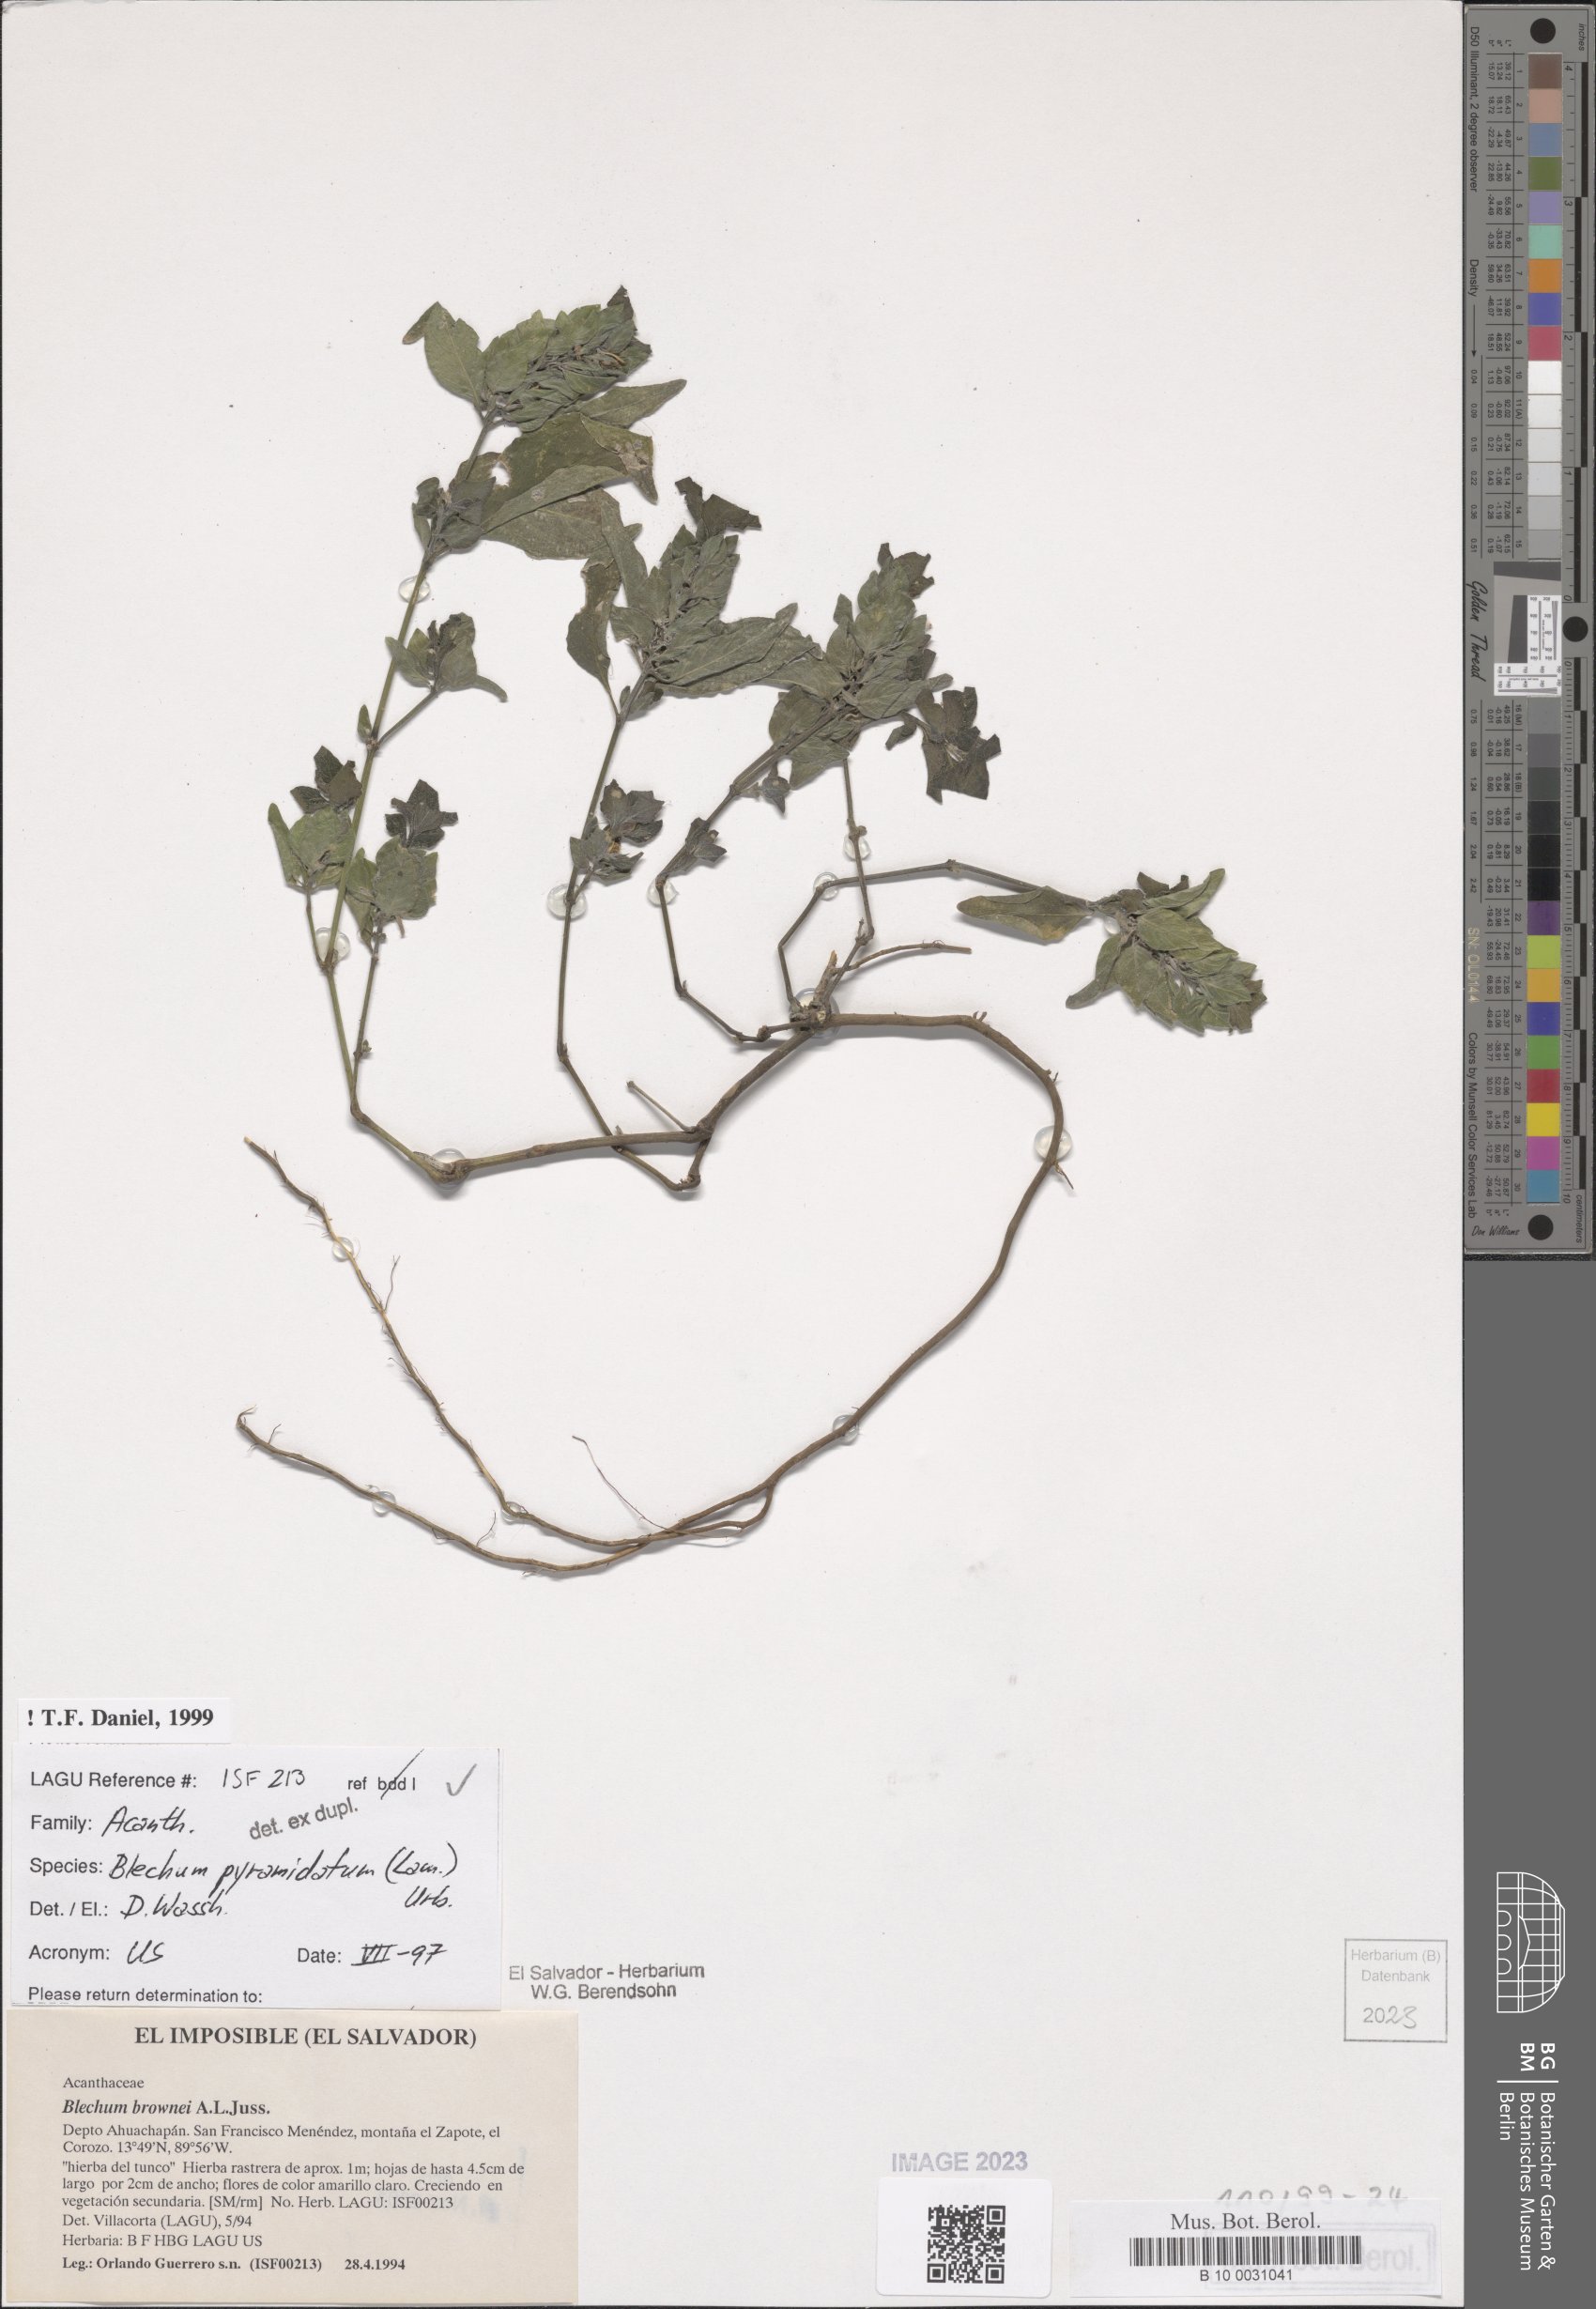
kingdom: Plantae
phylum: Tracheophyta
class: Magnoliopsida
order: Lamiales
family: Acanthaceae
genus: Ruellia
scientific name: Ruellia blechum
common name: Browne's blechum
